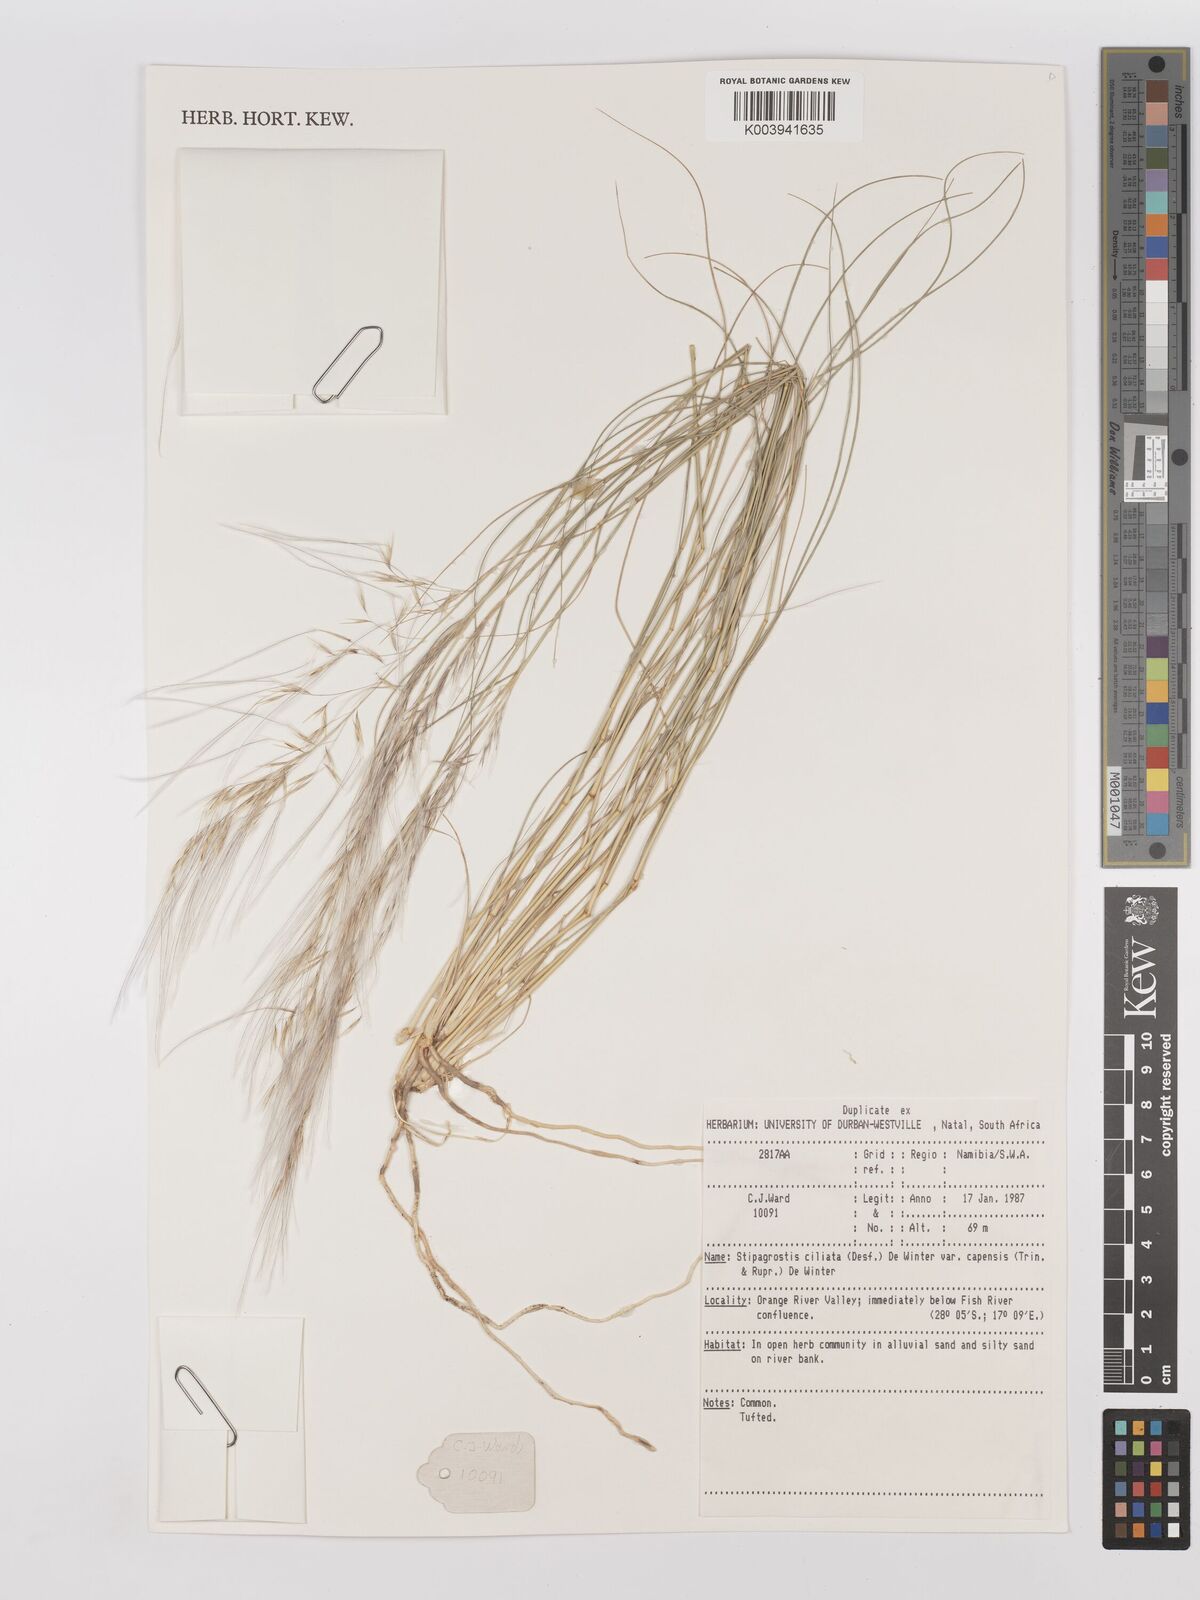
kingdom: Plantae
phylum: Tracheophyta
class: Liliopsida
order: Poales
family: Poaceae
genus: Stipagrostis
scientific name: Stipagrostis ciliata
